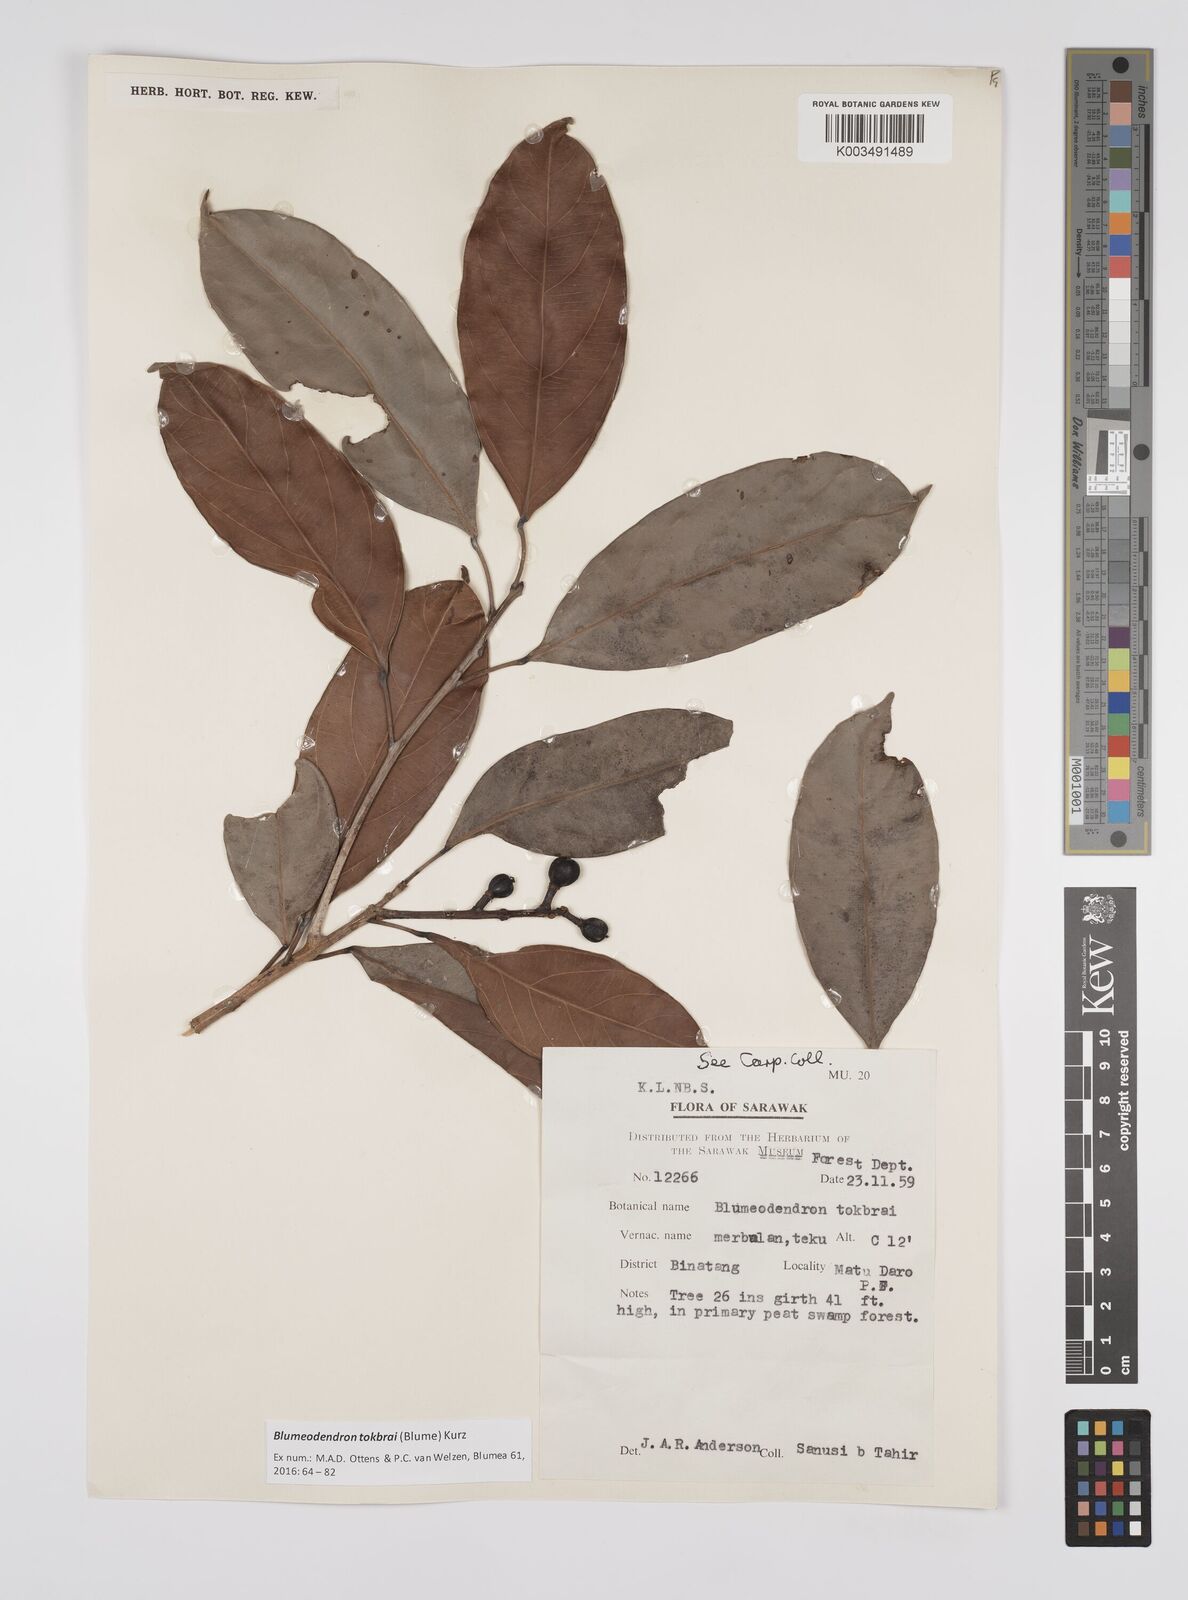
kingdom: Plantae
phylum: Tracheophyta
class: Magnoliopsida
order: Malpighiales
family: Euphorbiaceae
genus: Blumeodendron
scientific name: Blumeodendron tokbrai
